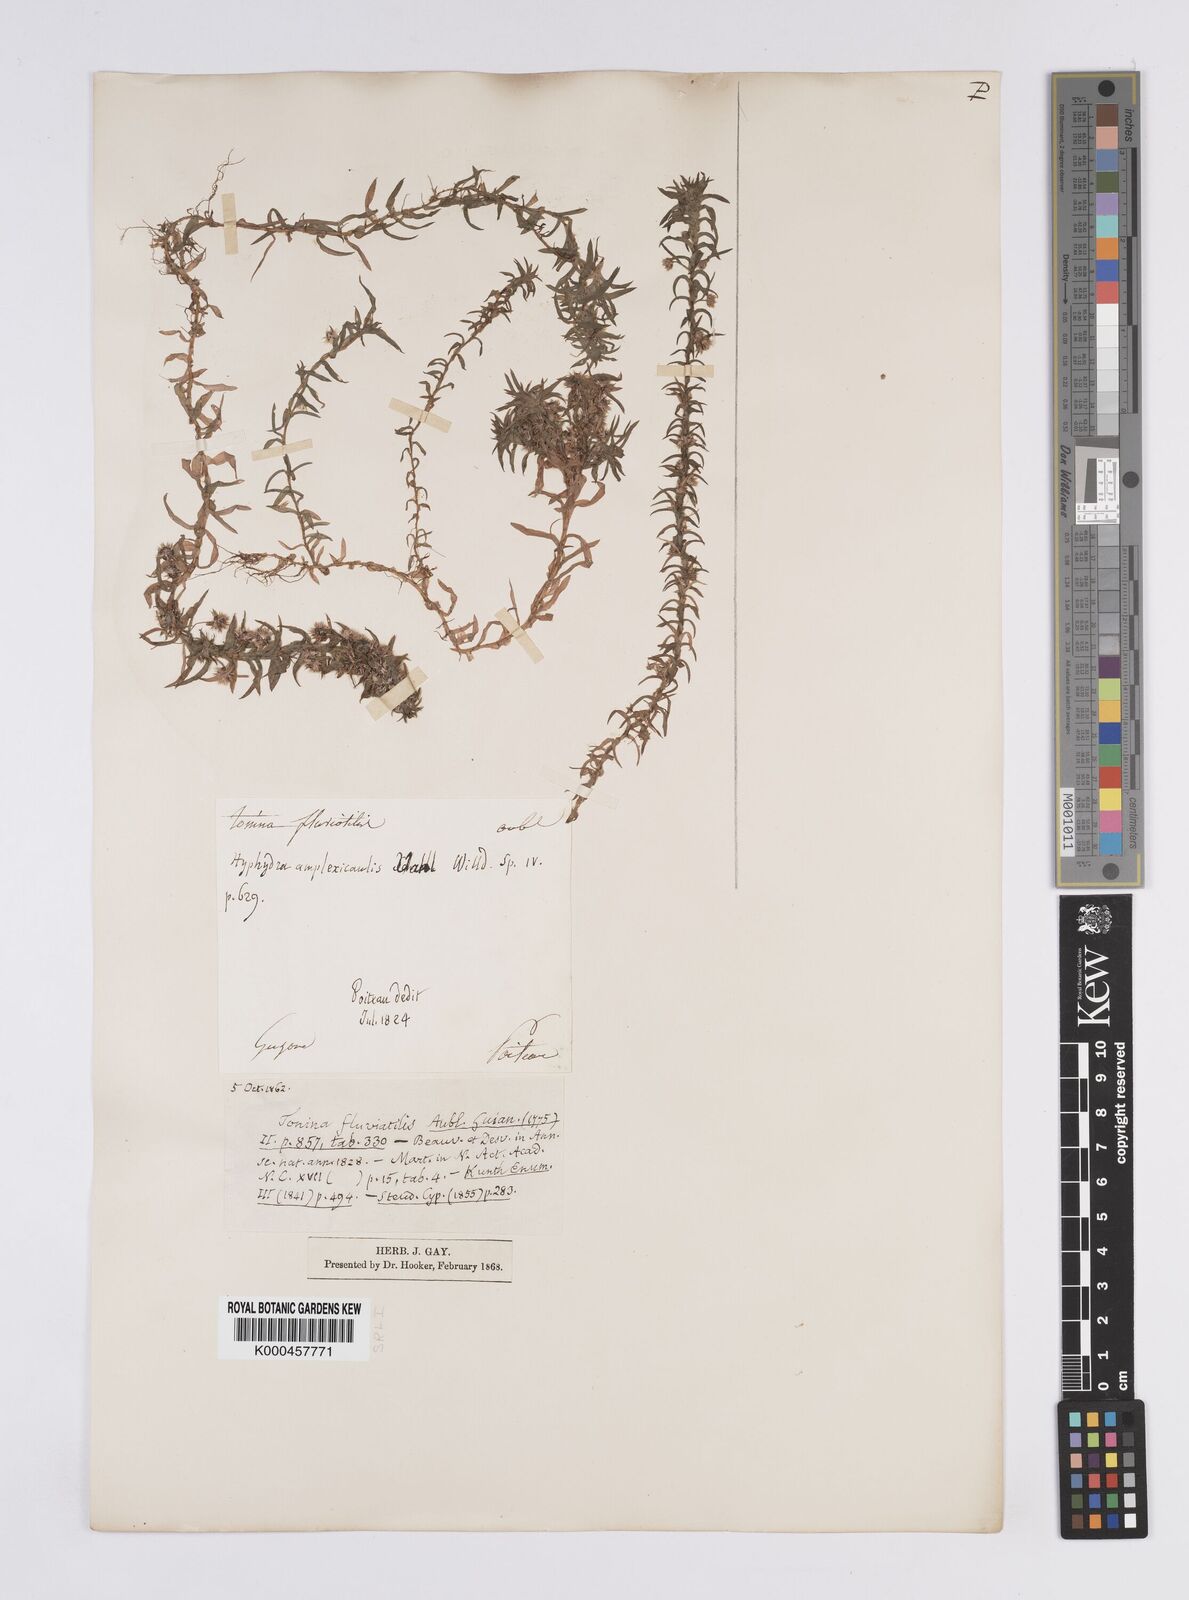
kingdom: Plantae
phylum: Tracheophyta
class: Liliopsida
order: Poales
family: Eriocaulaceae
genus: Paepalanthus
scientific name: Paepalanthus fluviatilis
